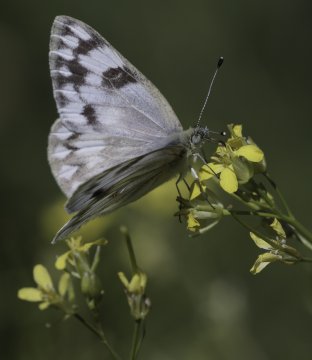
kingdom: Animalia
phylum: Arthropoda
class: Insecta
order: Lepidoptera
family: Pieridae
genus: Pontia
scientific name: Pontia occidentalis
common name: Western White
